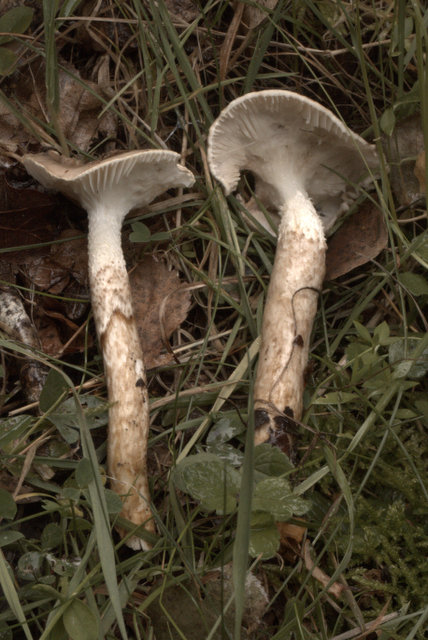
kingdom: Fungi
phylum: Basidiomycota
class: Agaricomycetes
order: Agaricales
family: Hygrophoraceae
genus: Hygrophorus
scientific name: Hygrophorus glutinifer
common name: tvefarvet sneglehat
